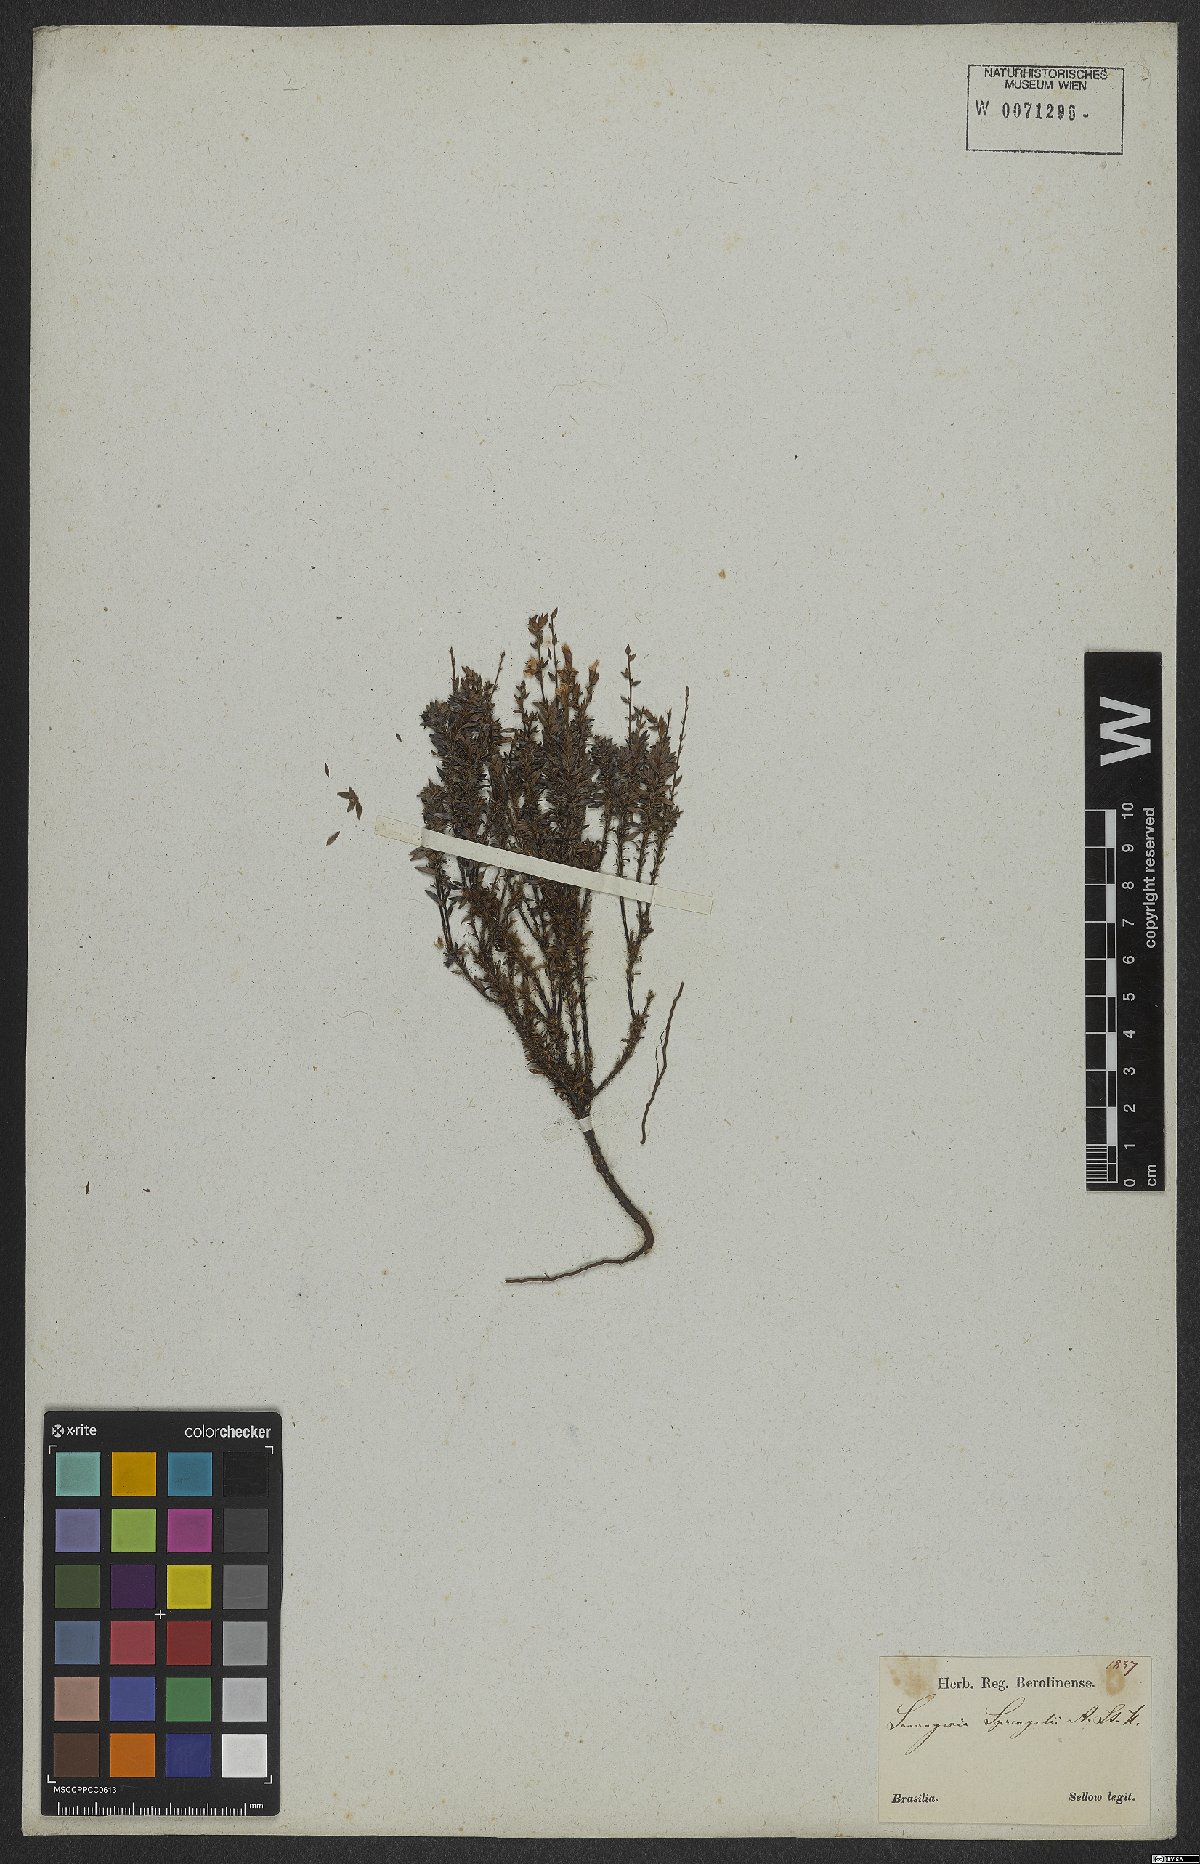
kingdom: Plantae
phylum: Tracheophyta
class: Magnoliopsida
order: Malpighiales
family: Ochnaceae
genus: Sauvagesia
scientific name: Sauvagesia tenella
